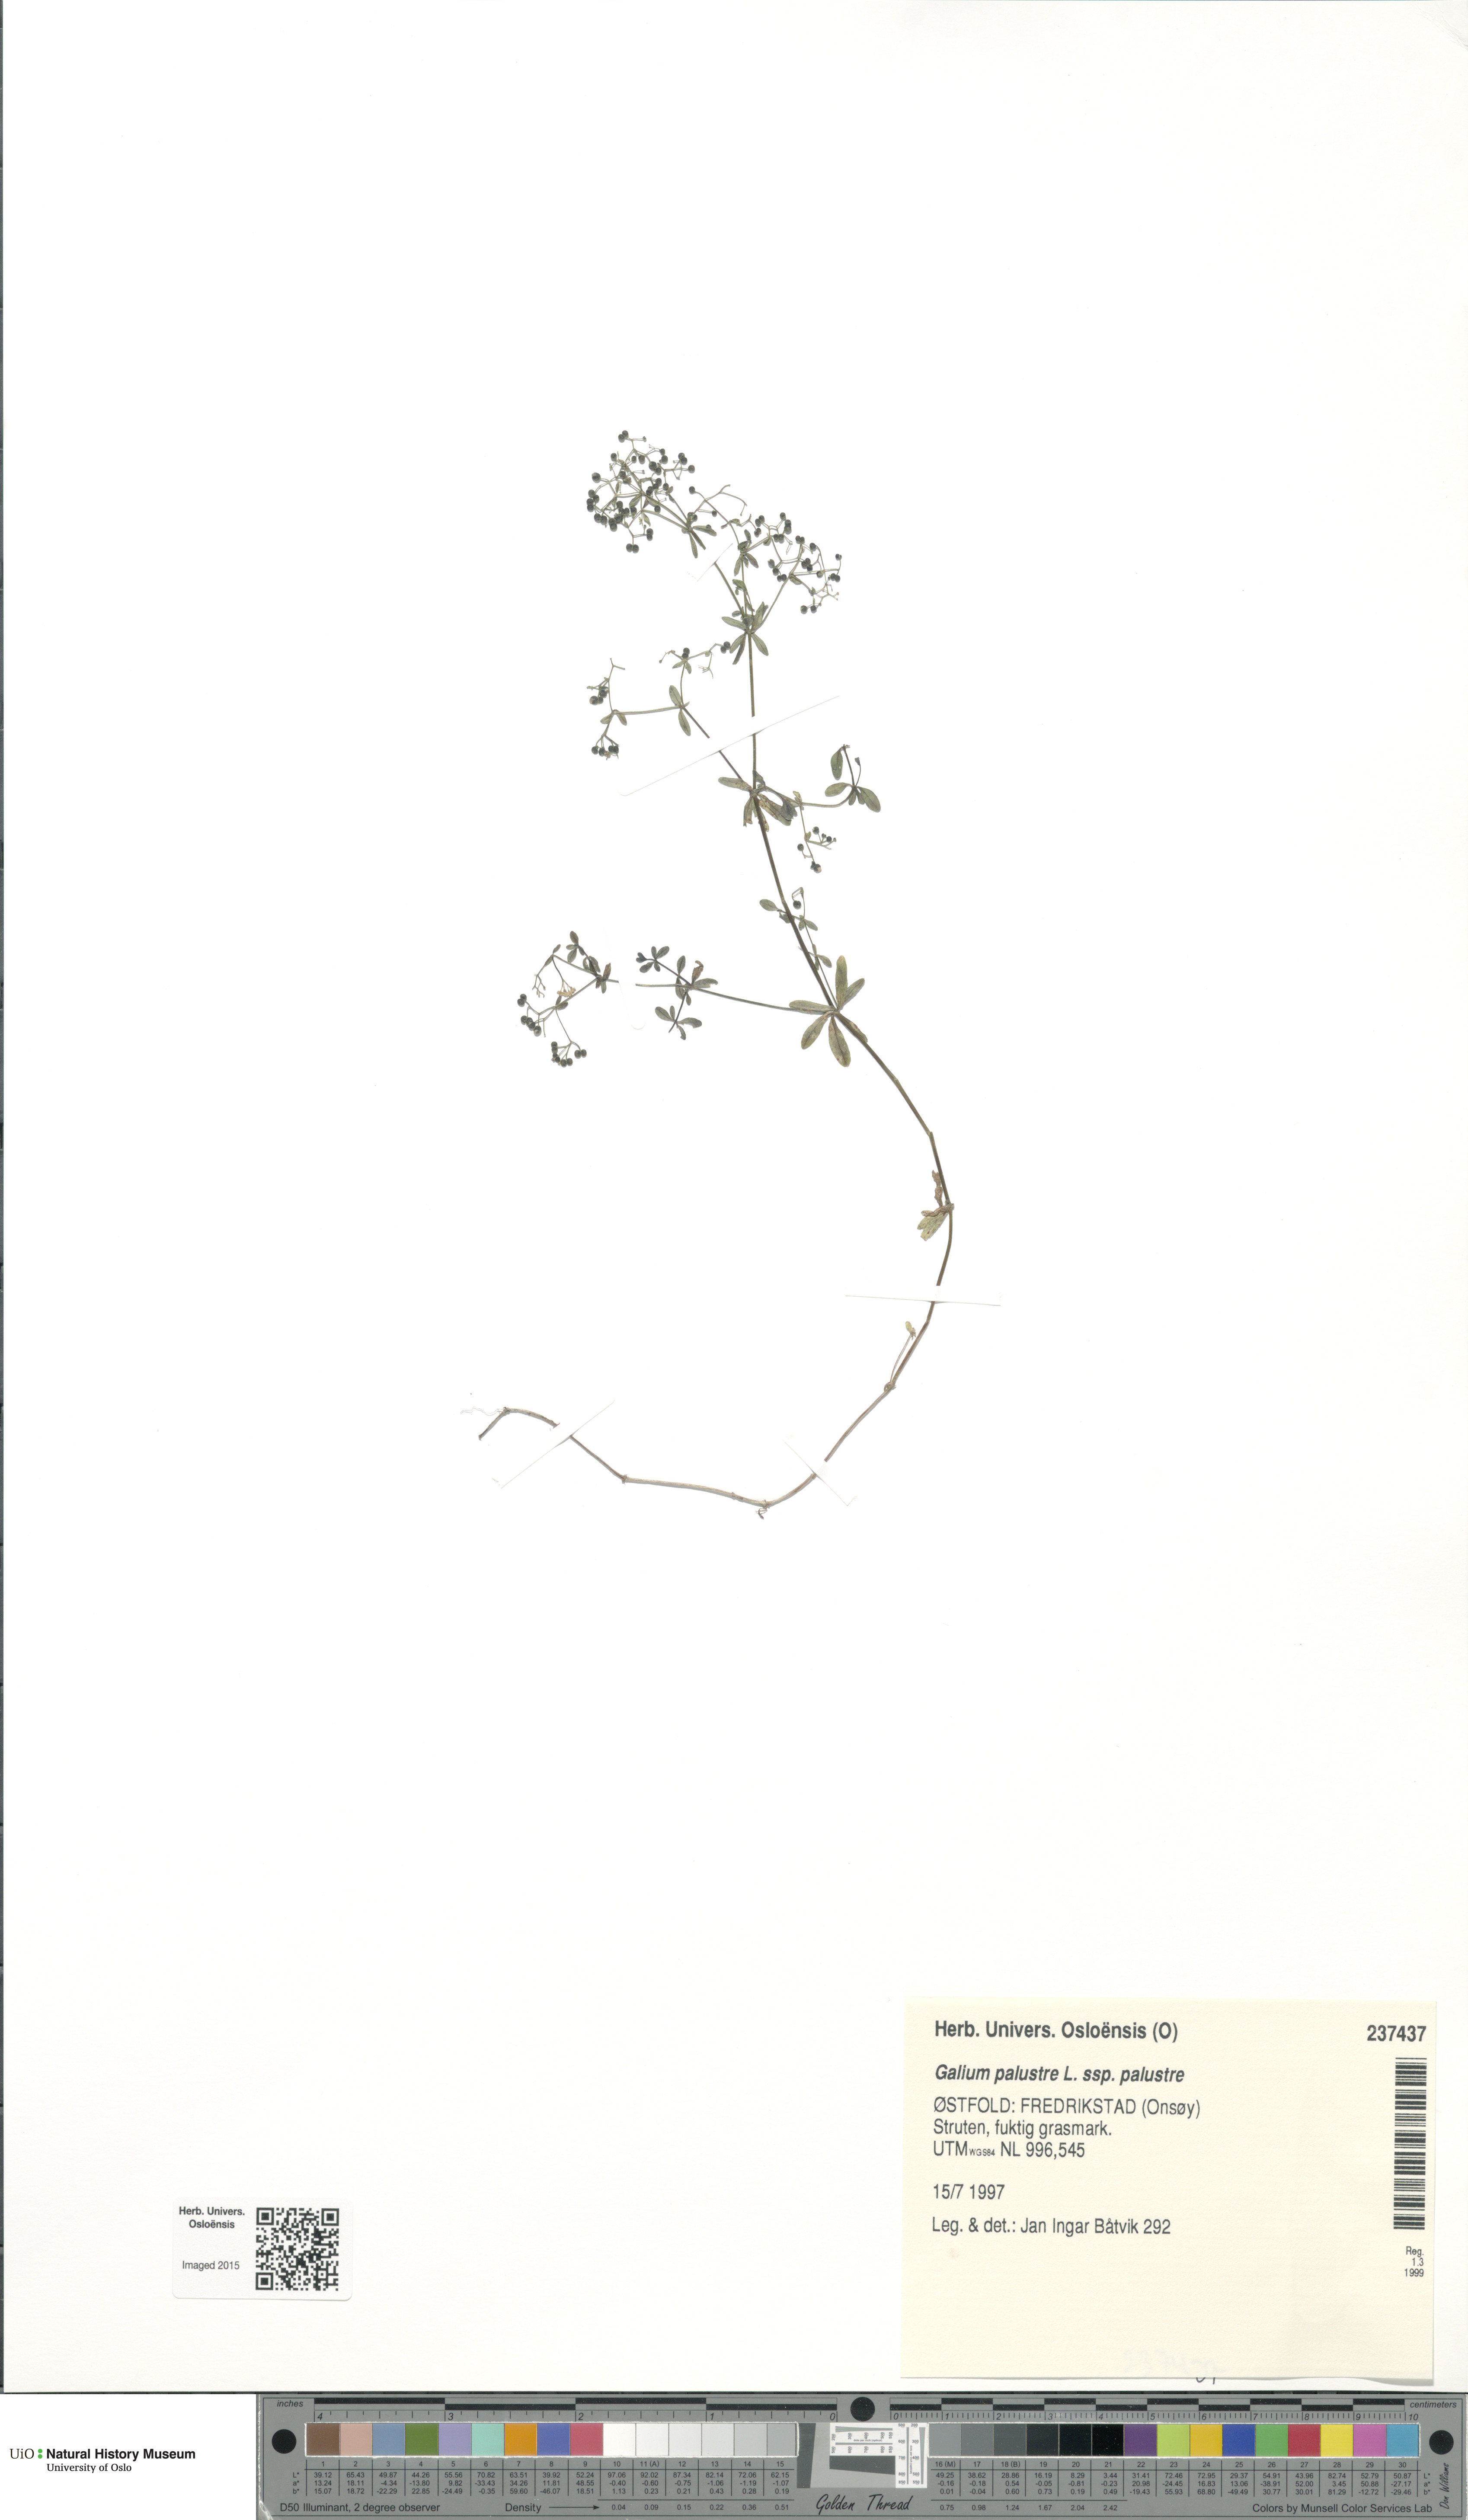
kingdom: Plantae
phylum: Tracheophyta
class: Magnoliopsida
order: Gentianales
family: Rubiaceae
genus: Galium
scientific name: Galium palustre
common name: Common marsh-bedstraw
